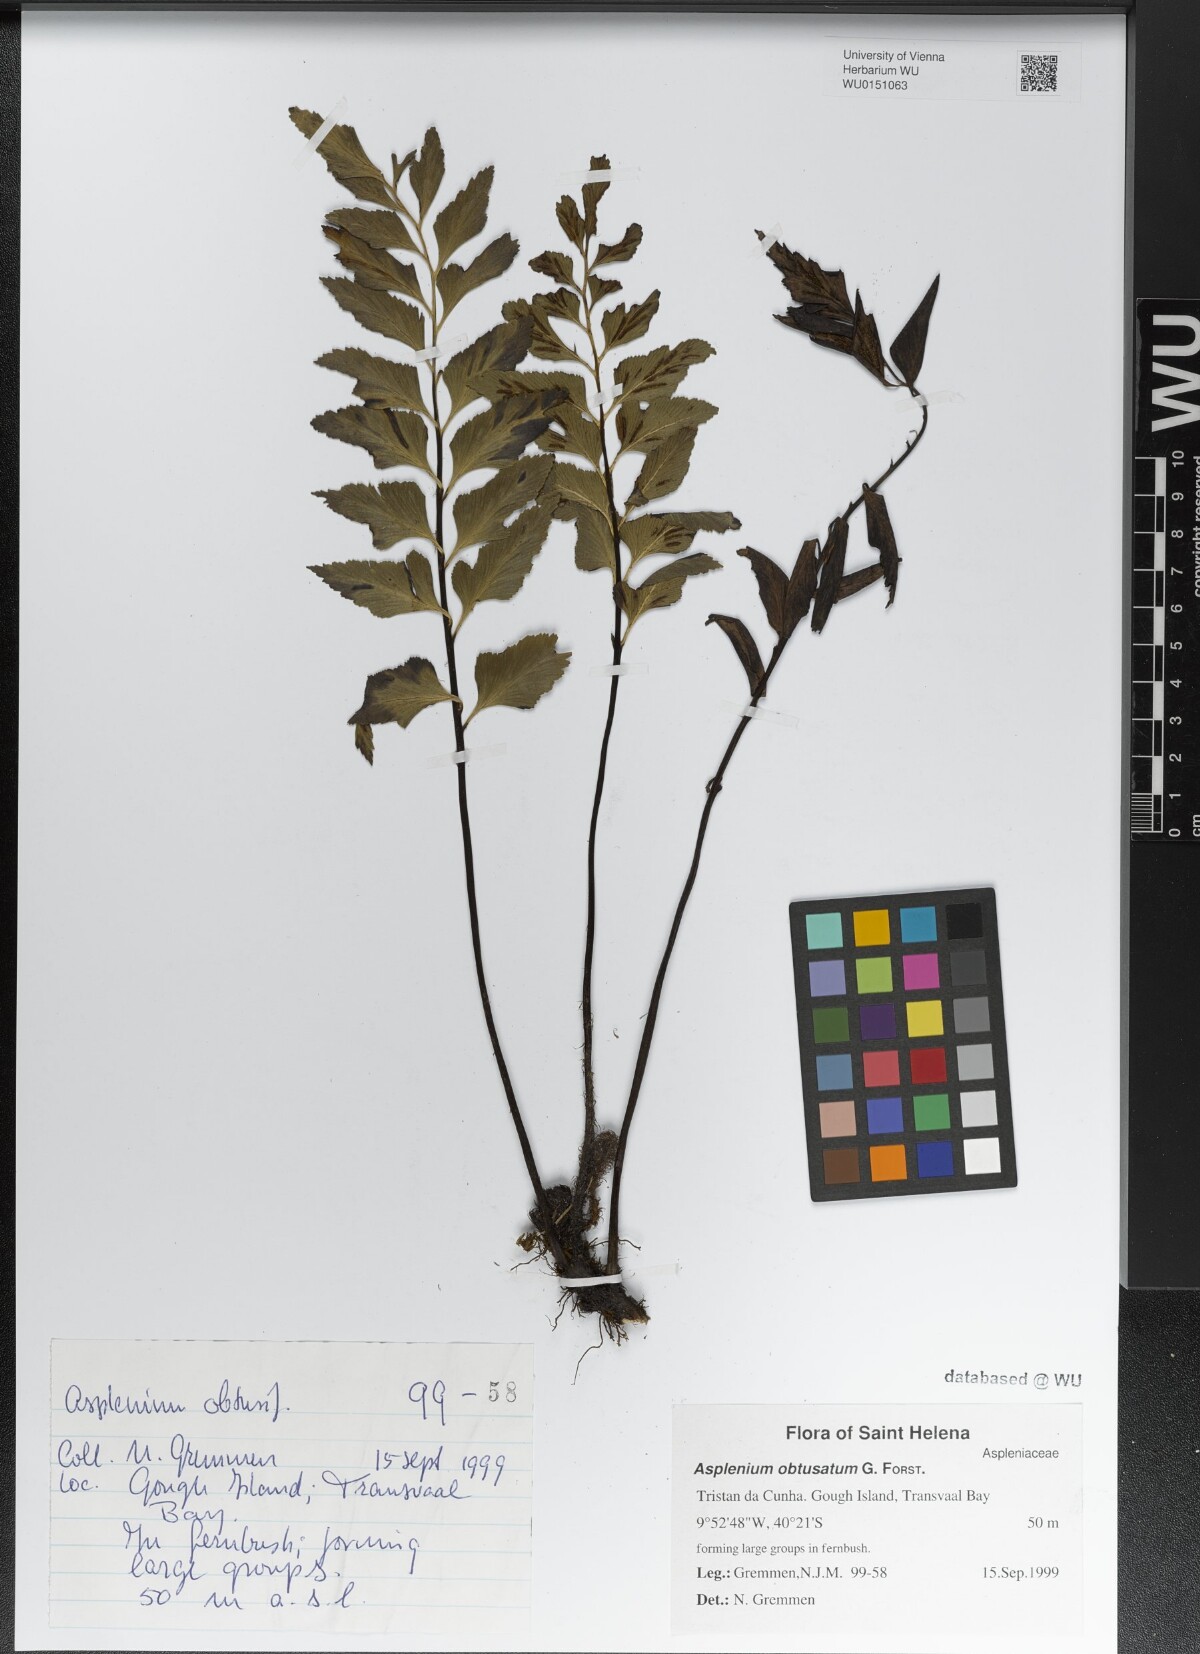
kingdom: Plantae
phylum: Tracheophyta
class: Polypodiopsida
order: Polypodiales
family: Aspleniaceae
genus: Asplenium
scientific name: Asplenium obtusatum
